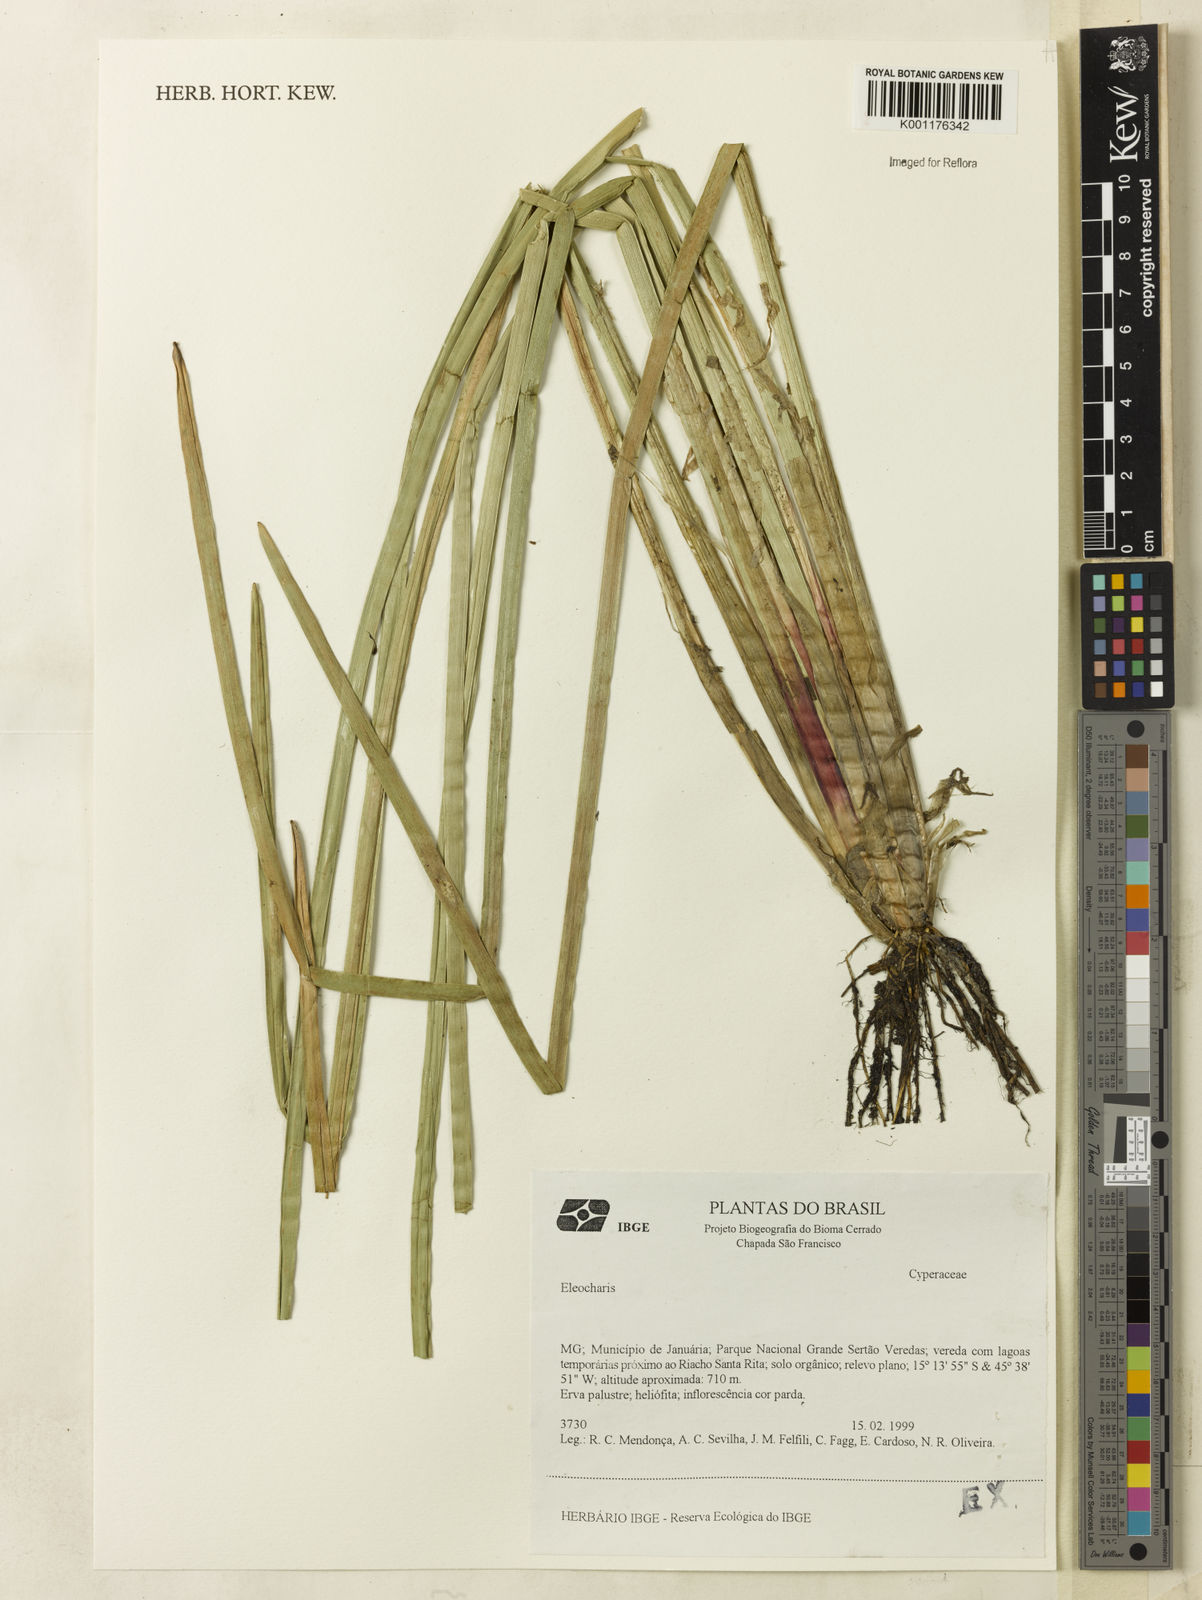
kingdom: Plantae
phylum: Tracheophyta
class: Liliopsida
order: Poales
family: Cyperaceae
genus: Eleocharis
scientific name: Eleocharis
